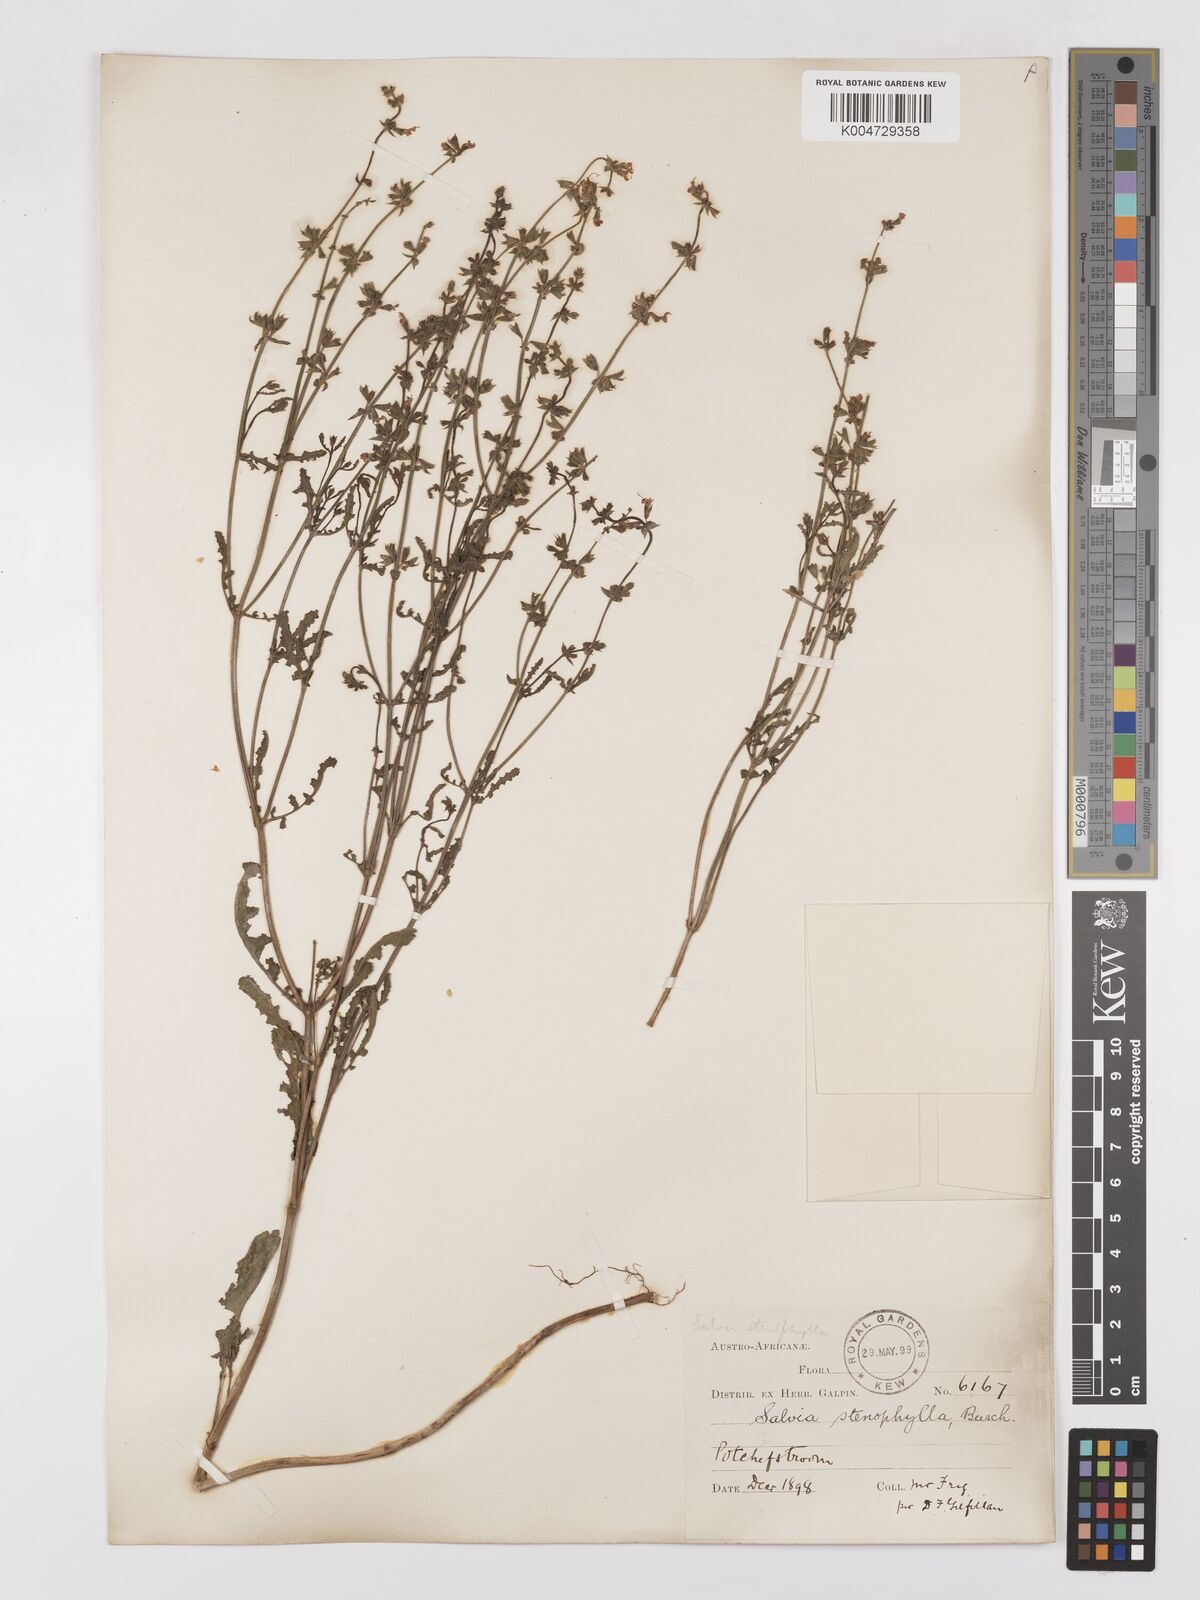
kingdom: Plantae
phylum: Tracheophyta
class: Magnoliopsida
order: Lamiales
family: Lamiaceae
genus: Salvia
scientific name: Salvia stenophylla
